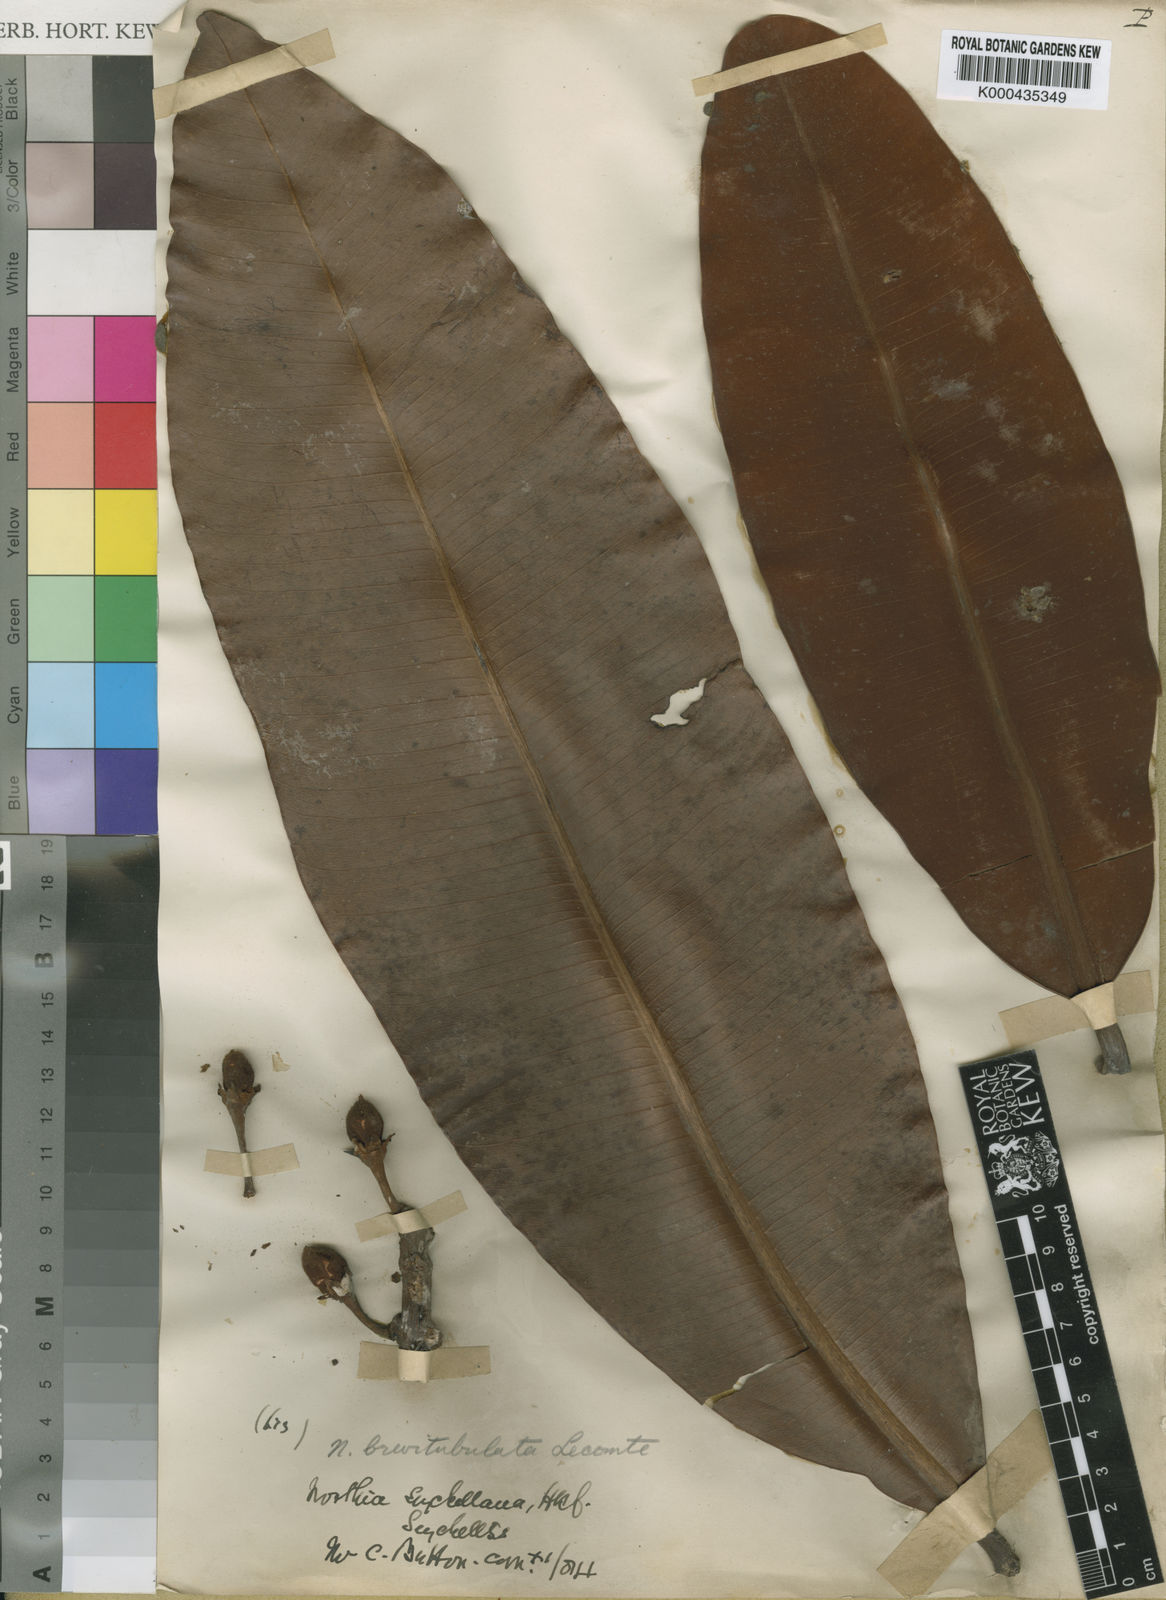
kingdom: Plantae
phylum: Tracheophyta
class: Magnoliopsida
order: Ericales
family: Sapotaceae
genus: Northia
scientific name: Northia seychellana
